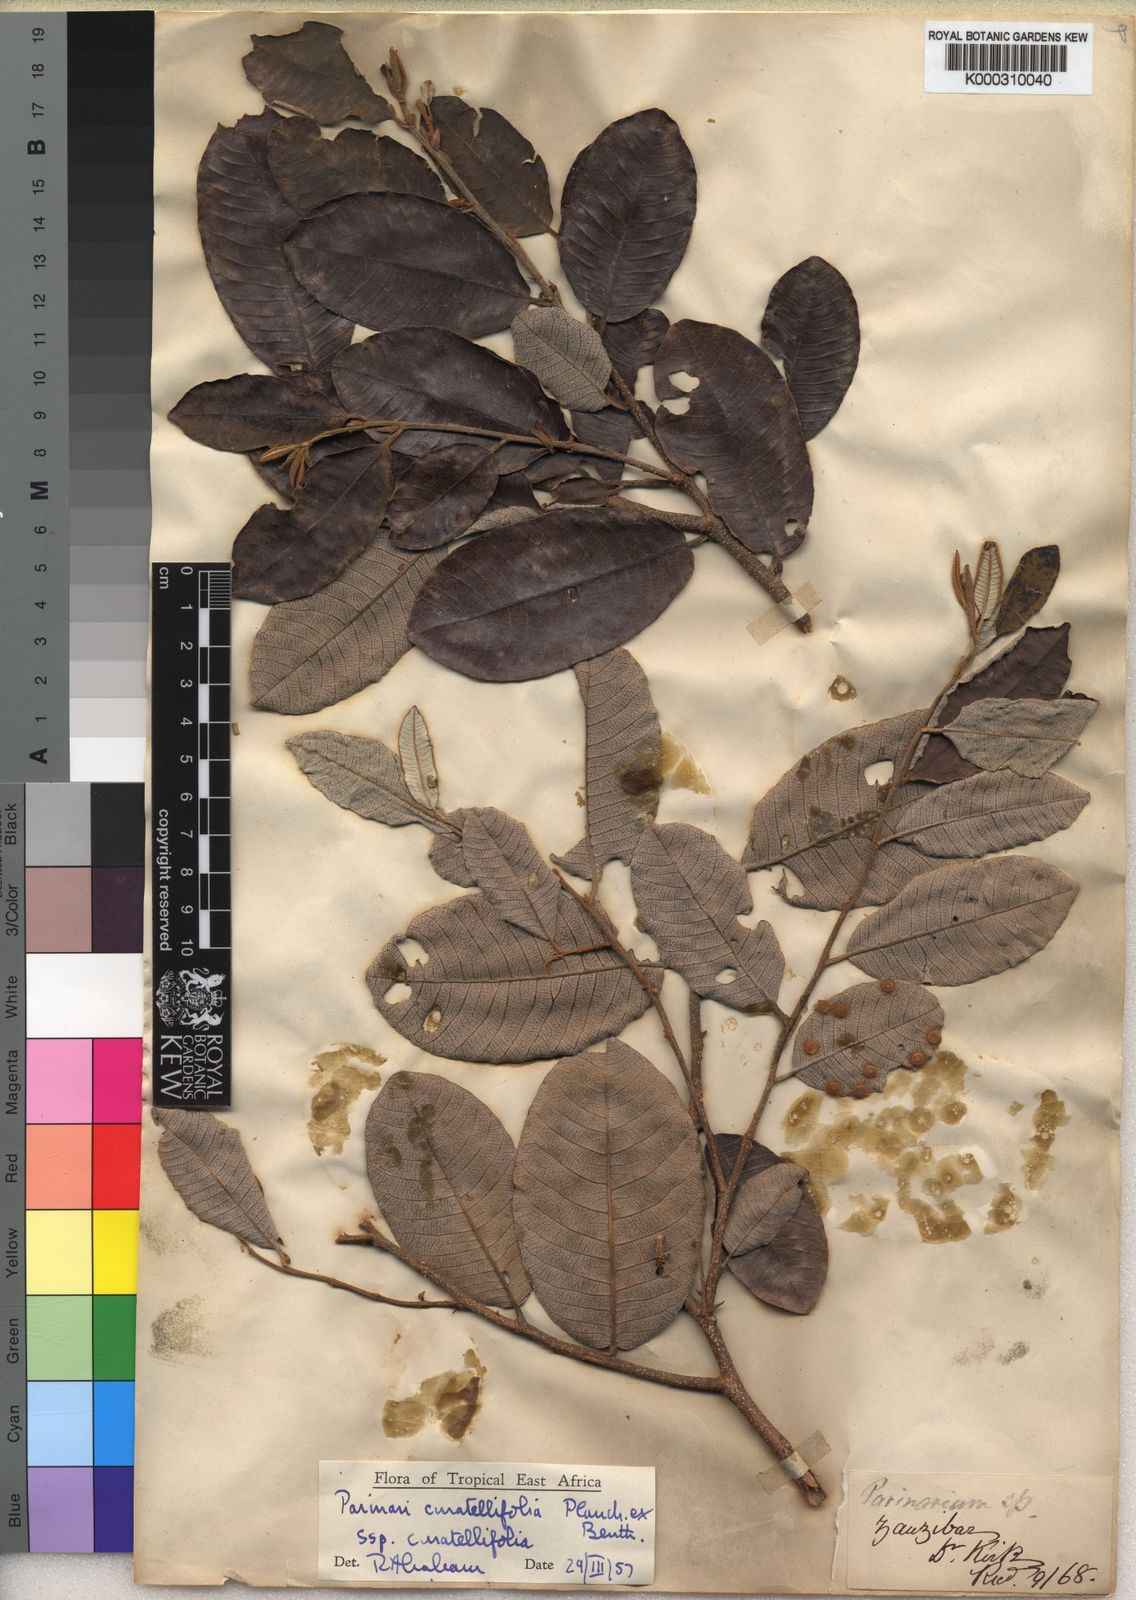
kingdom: Plantae
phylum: Tracheophyta
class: Magnoliopsida
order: Malpighiales
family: Chrysobalanaceae
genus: Parinari
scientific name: Parinari curatellifolia
